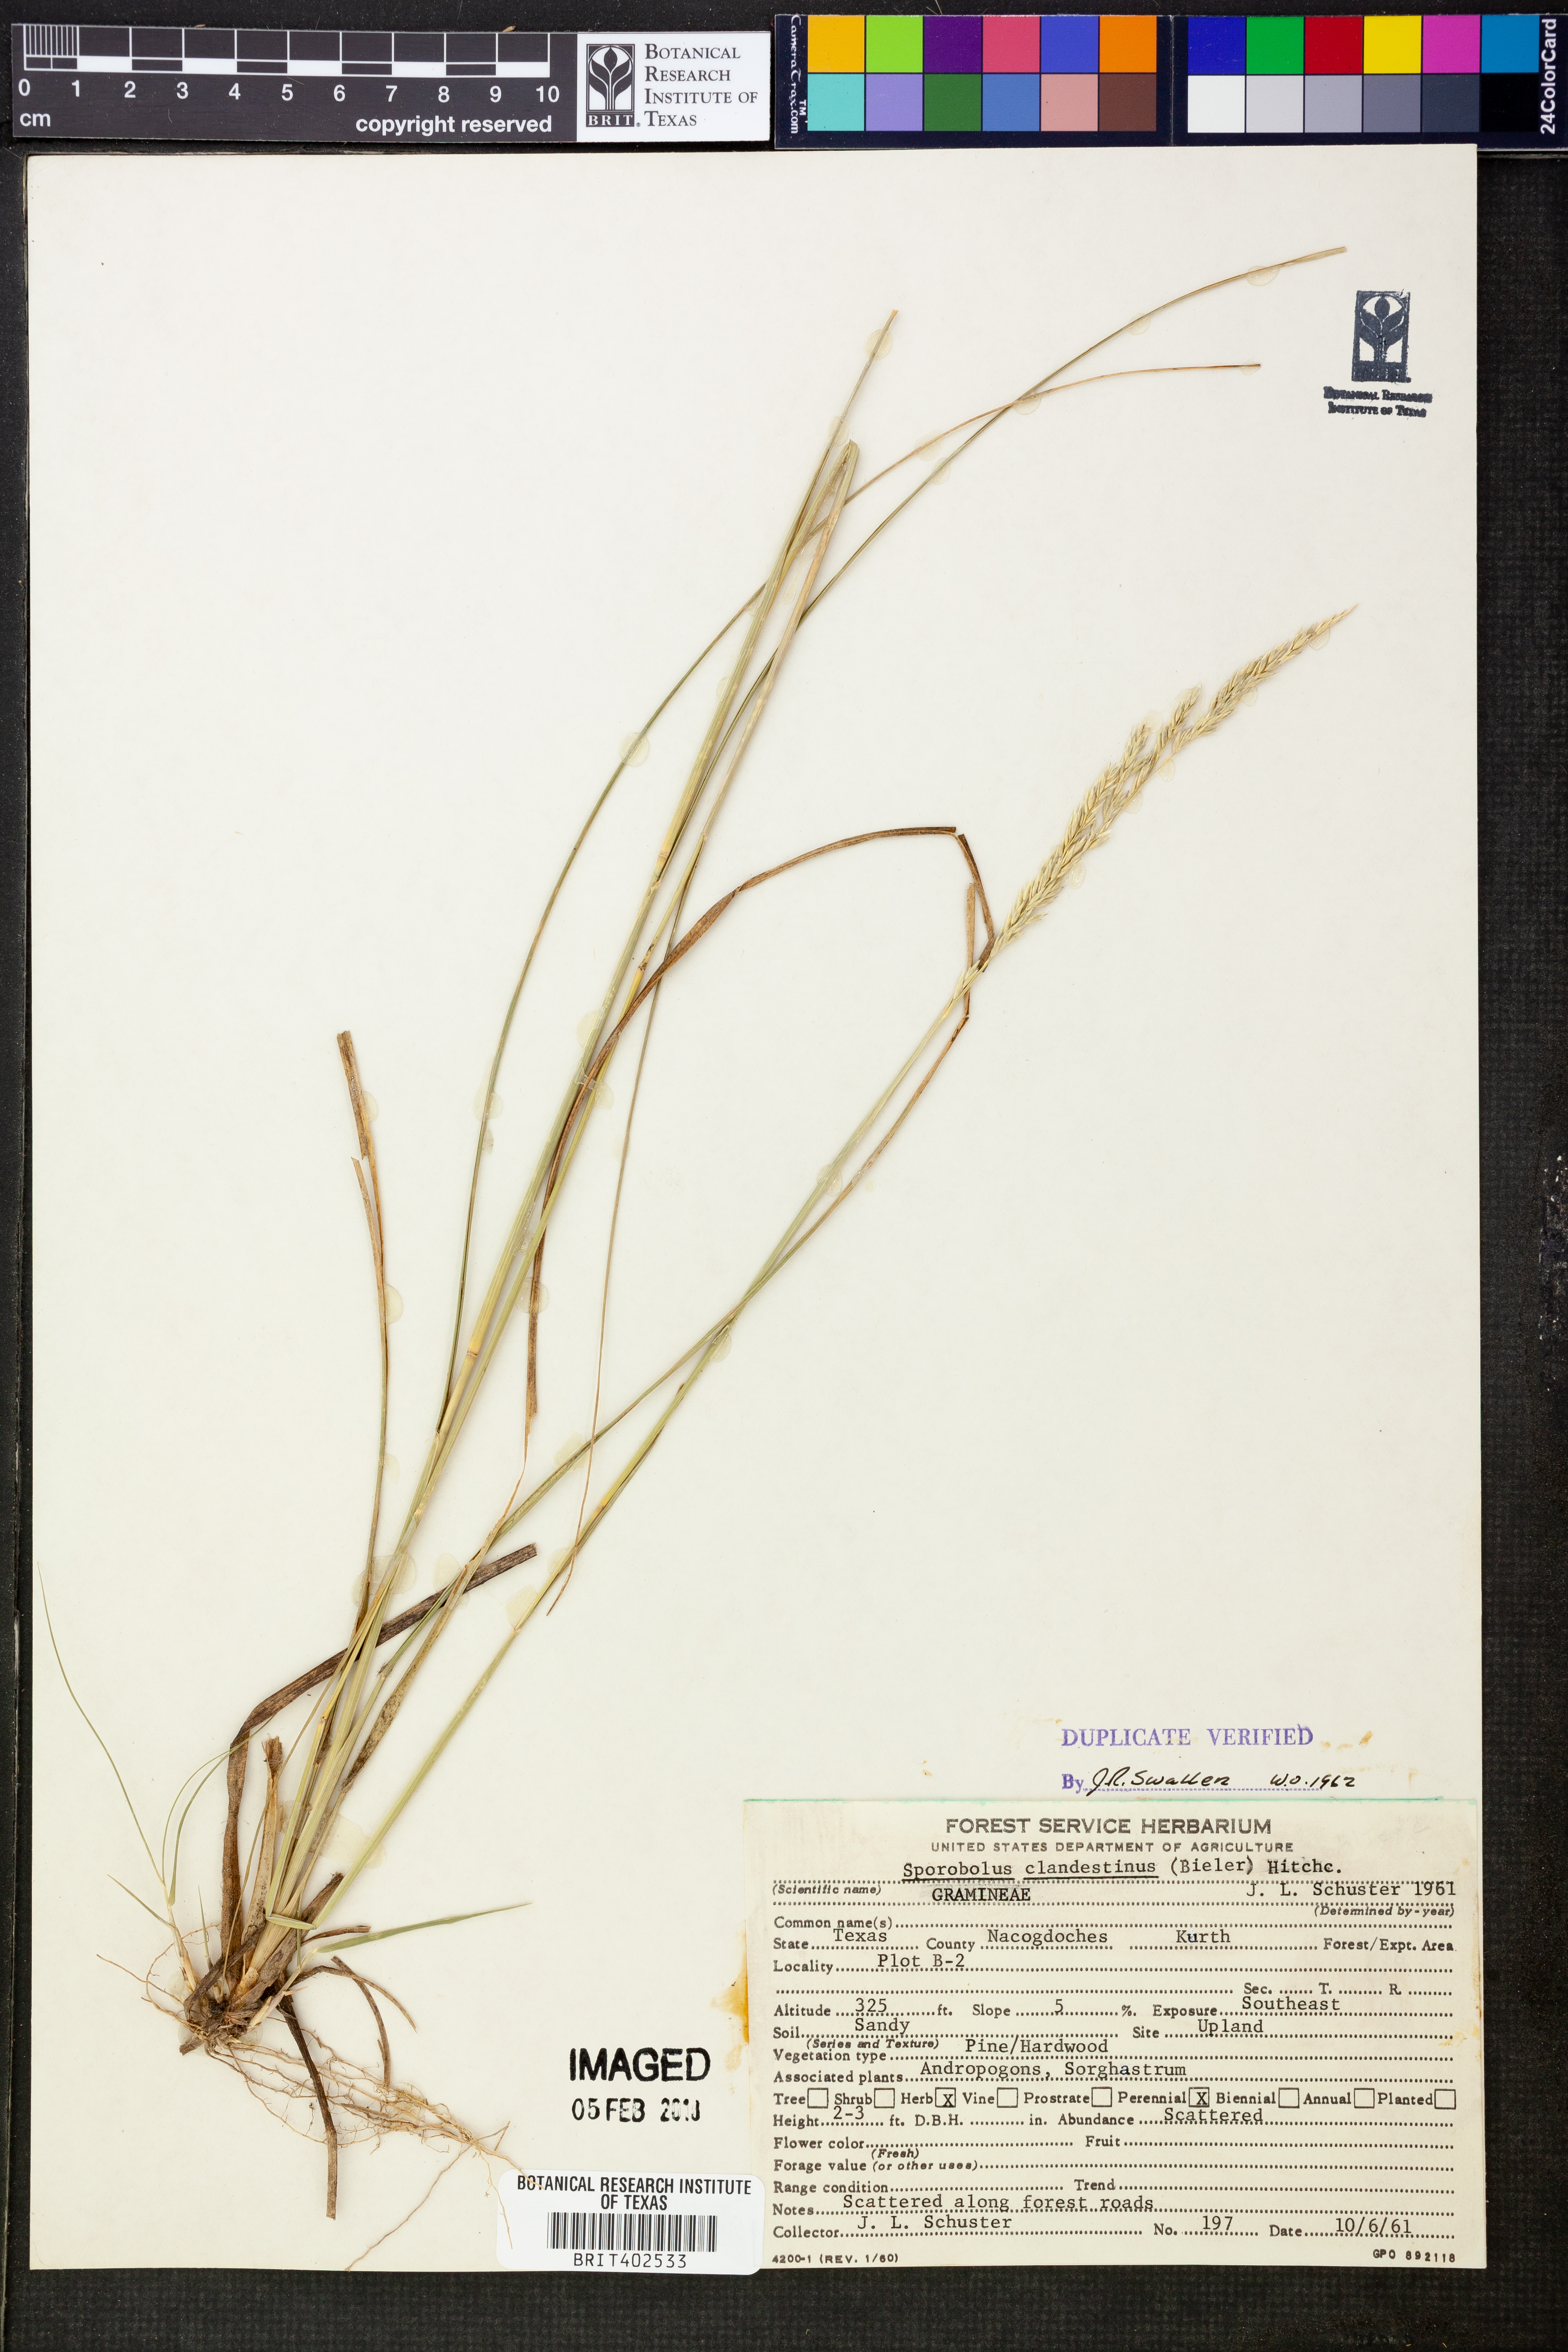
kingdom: Plantae
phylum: Tracheophyta
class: Liliopsida
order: Poales
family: Poaceae
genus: Sporobolus
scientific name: Sporobolus clandestinus
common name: Hidden dropseed
